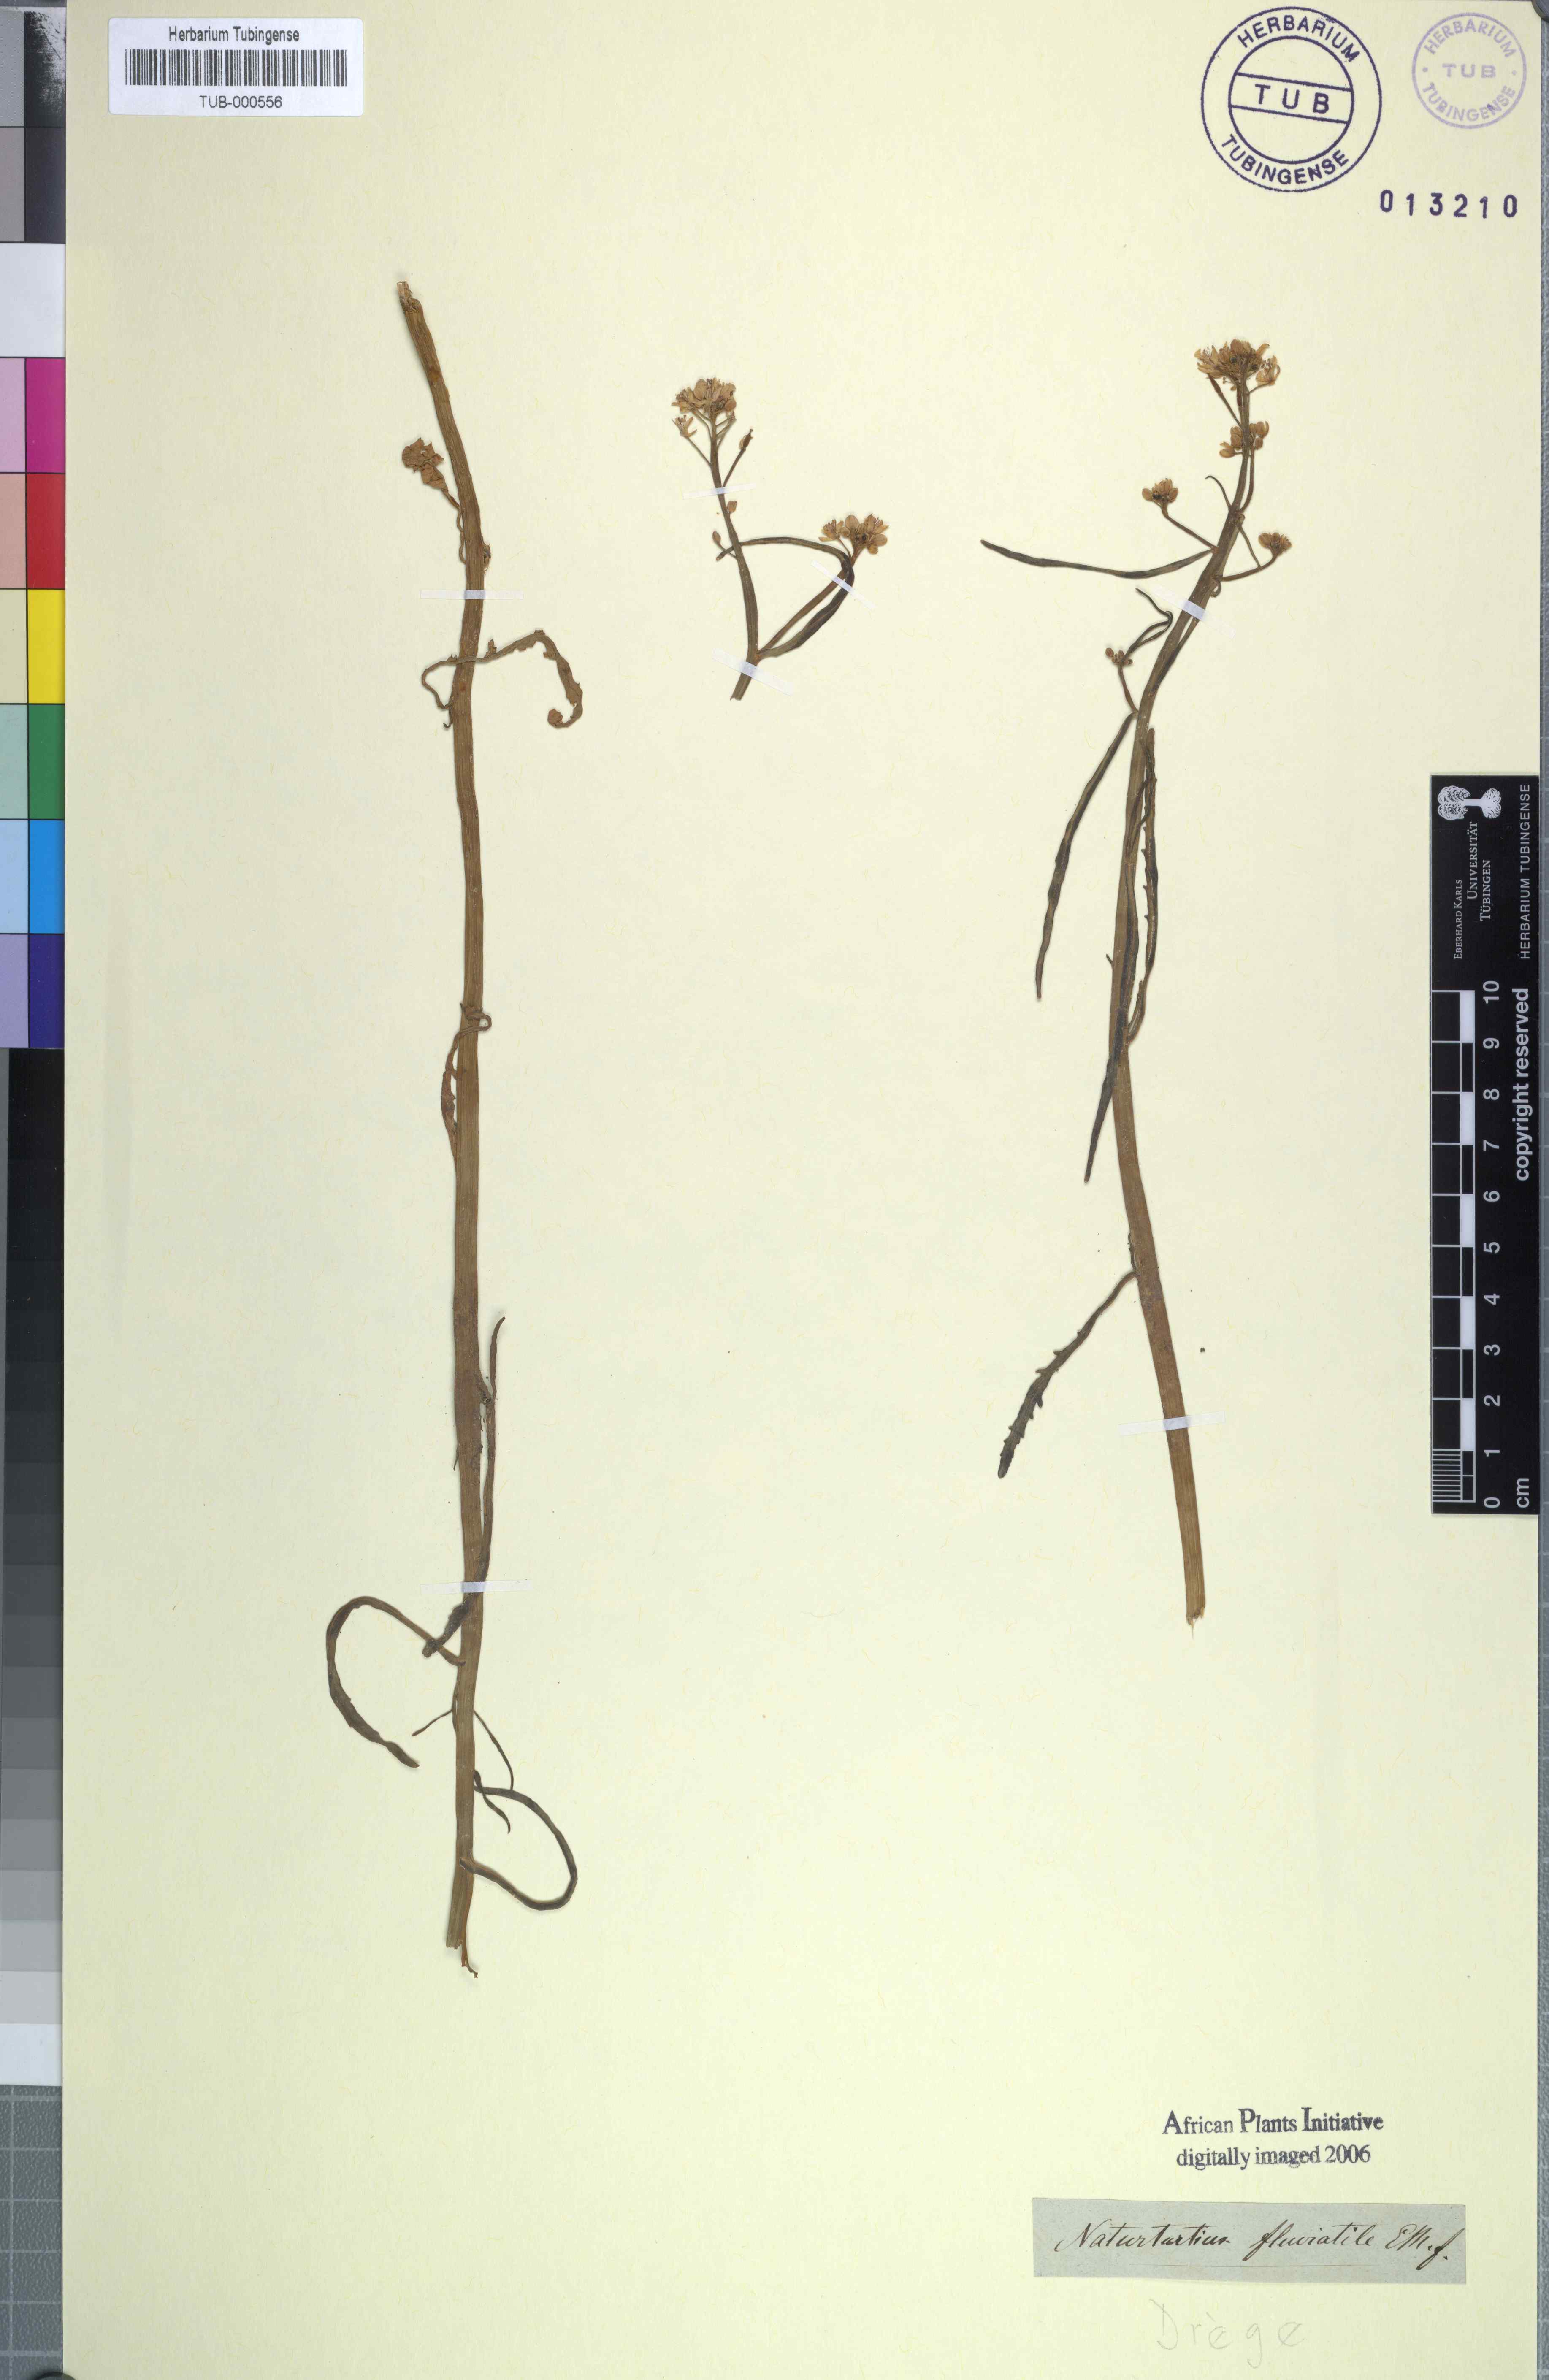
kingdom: Plantae
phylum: Tracheophyta
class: Magnoliopsida
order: Brassicales
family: Brassicaceae
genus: Rorippa
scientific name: Rorippa fluviatilis
